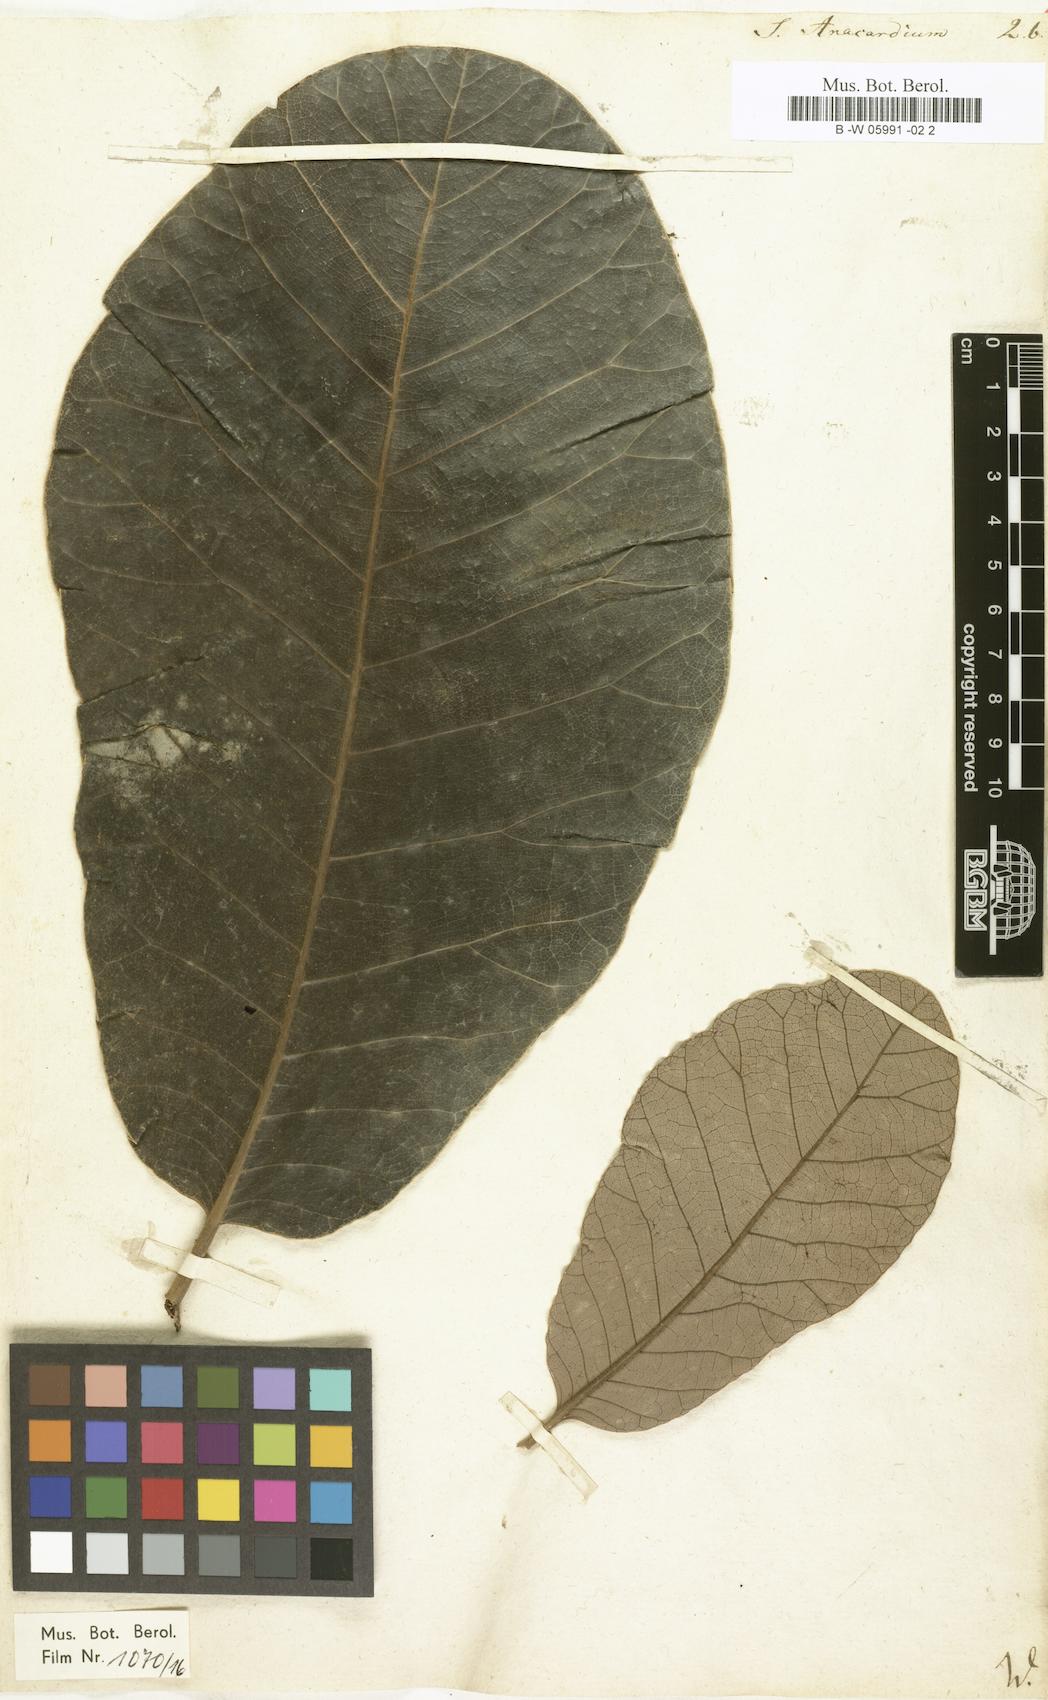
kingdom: Plantae
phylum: Tracheophyta
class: Magnoliopsida
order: Sapindales
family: Anacardiaceae
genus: Semecarpus
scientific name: Semecarpus anacardium
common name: Marking nut-tree
